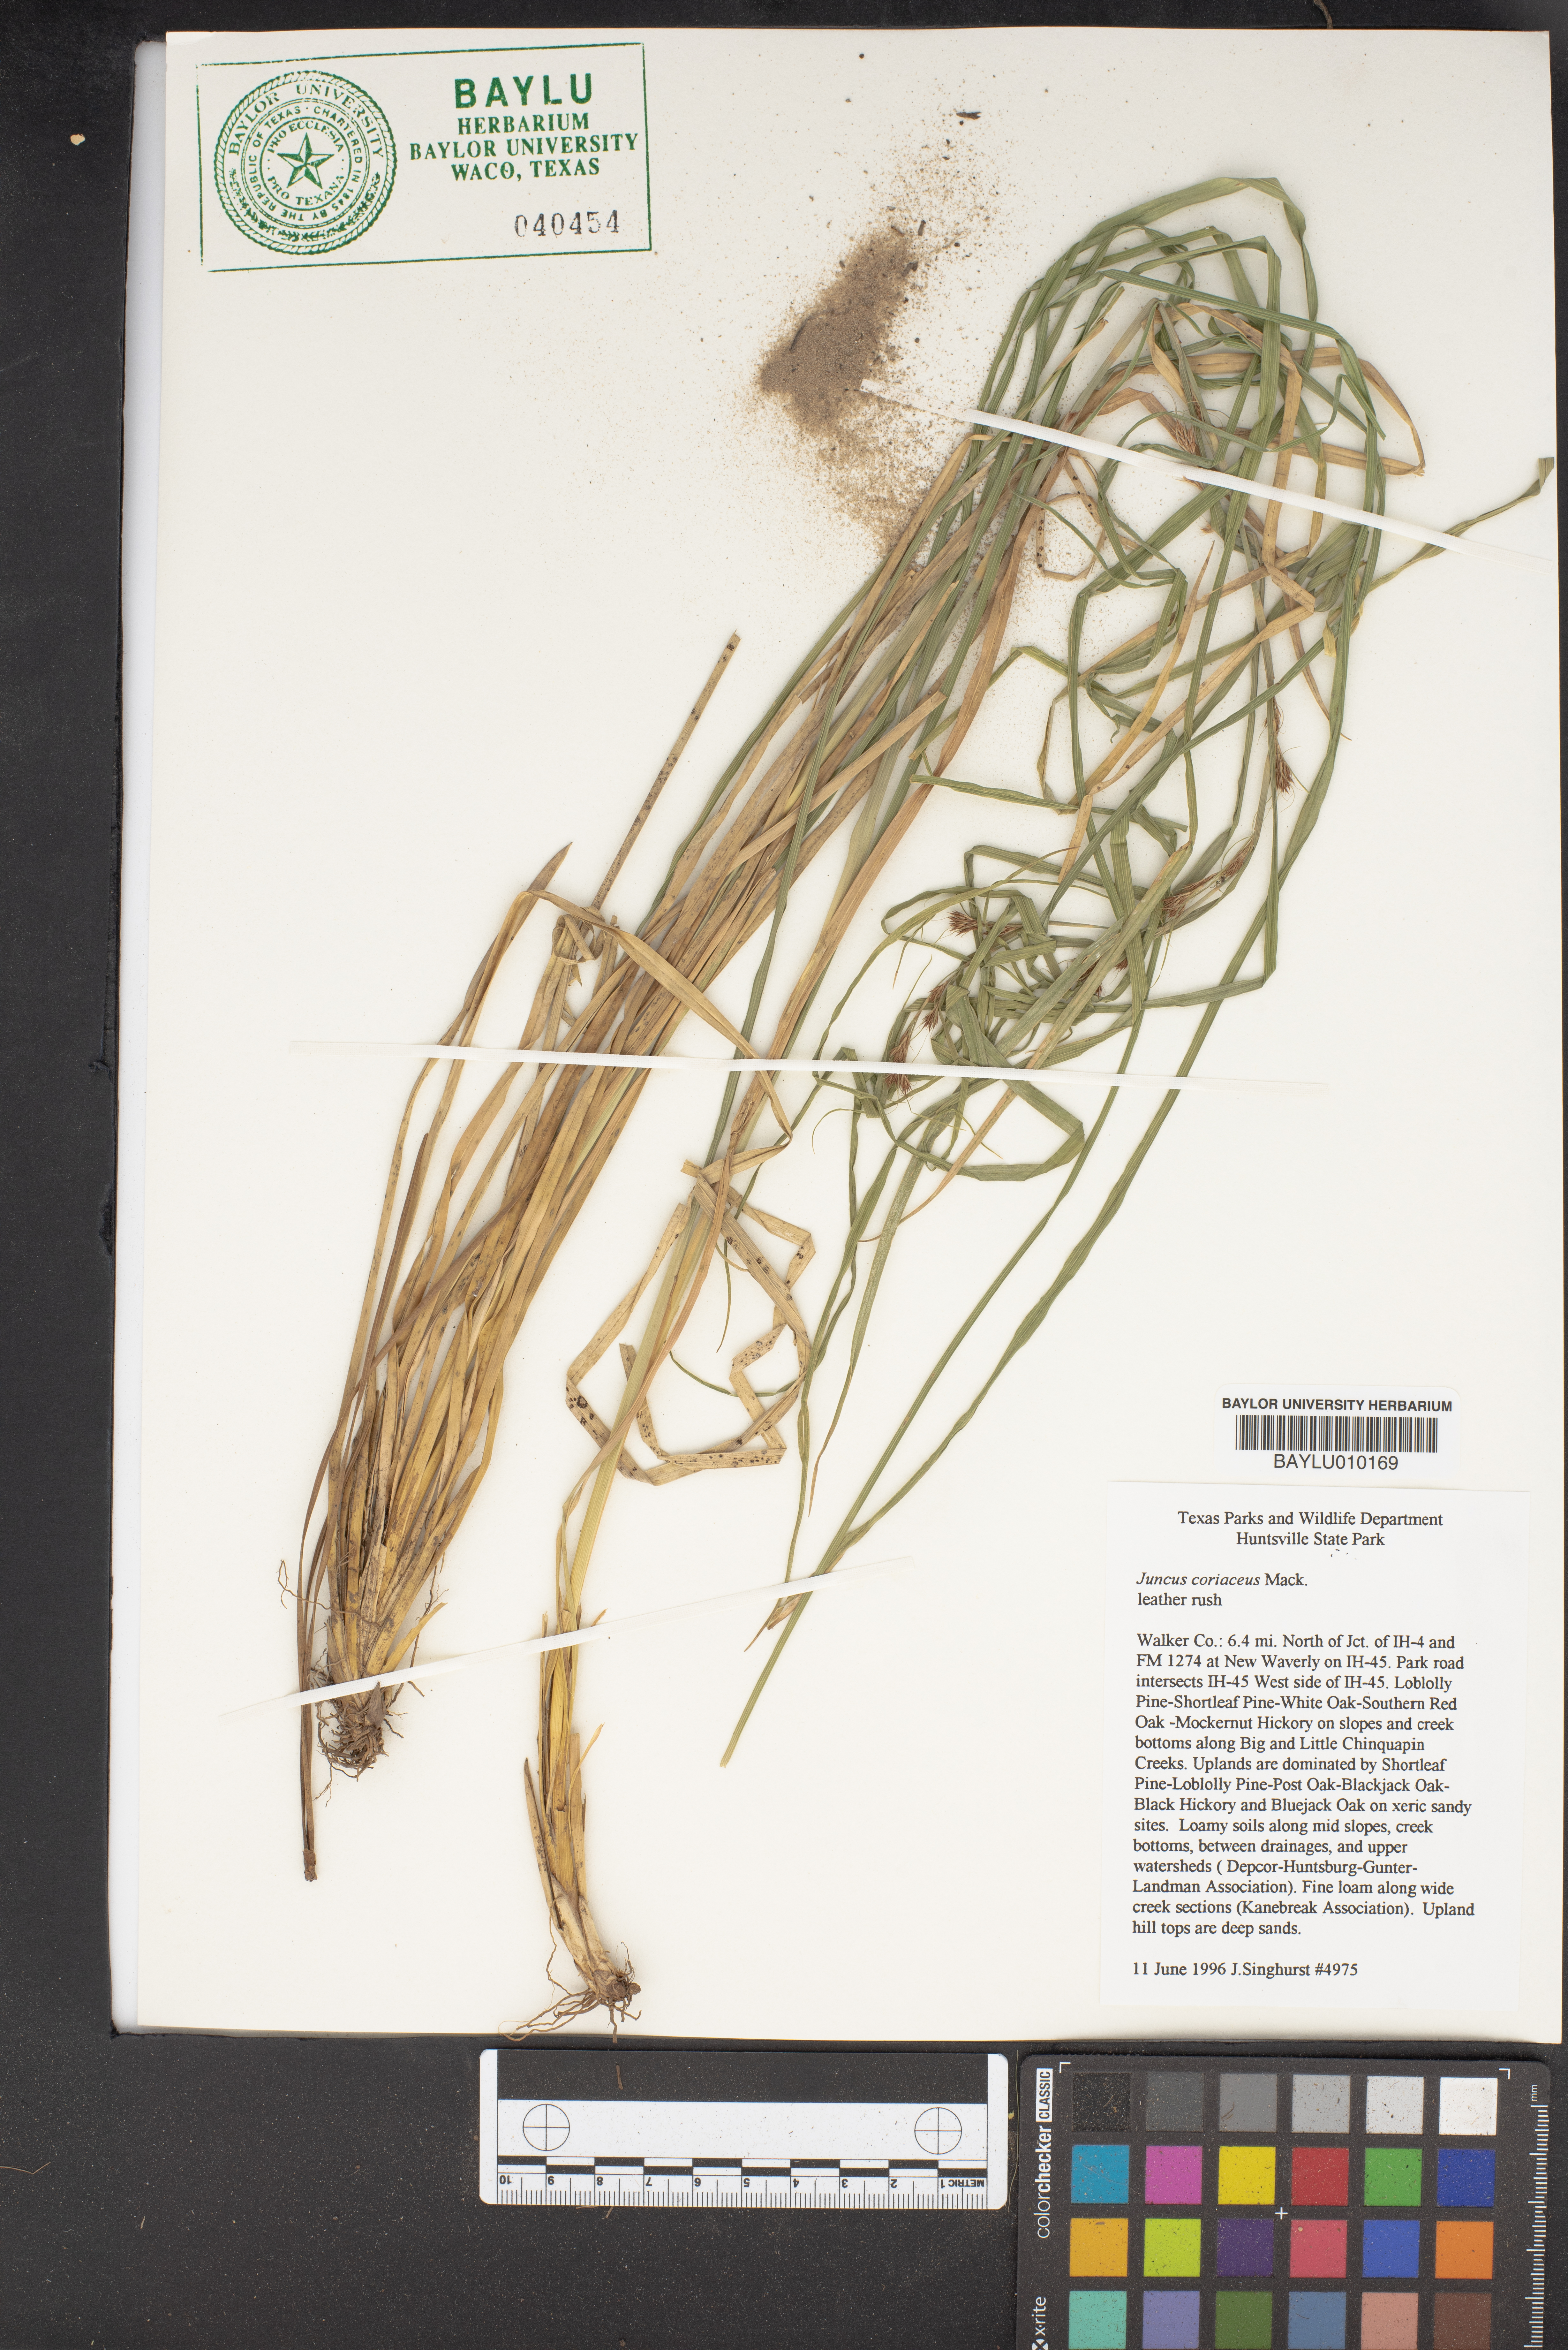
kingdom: Plantae
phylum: Tracheophyta
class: Liliopsida
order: Poales
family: Juncaceae
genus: Juncus
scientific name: Juncus coriaceus
